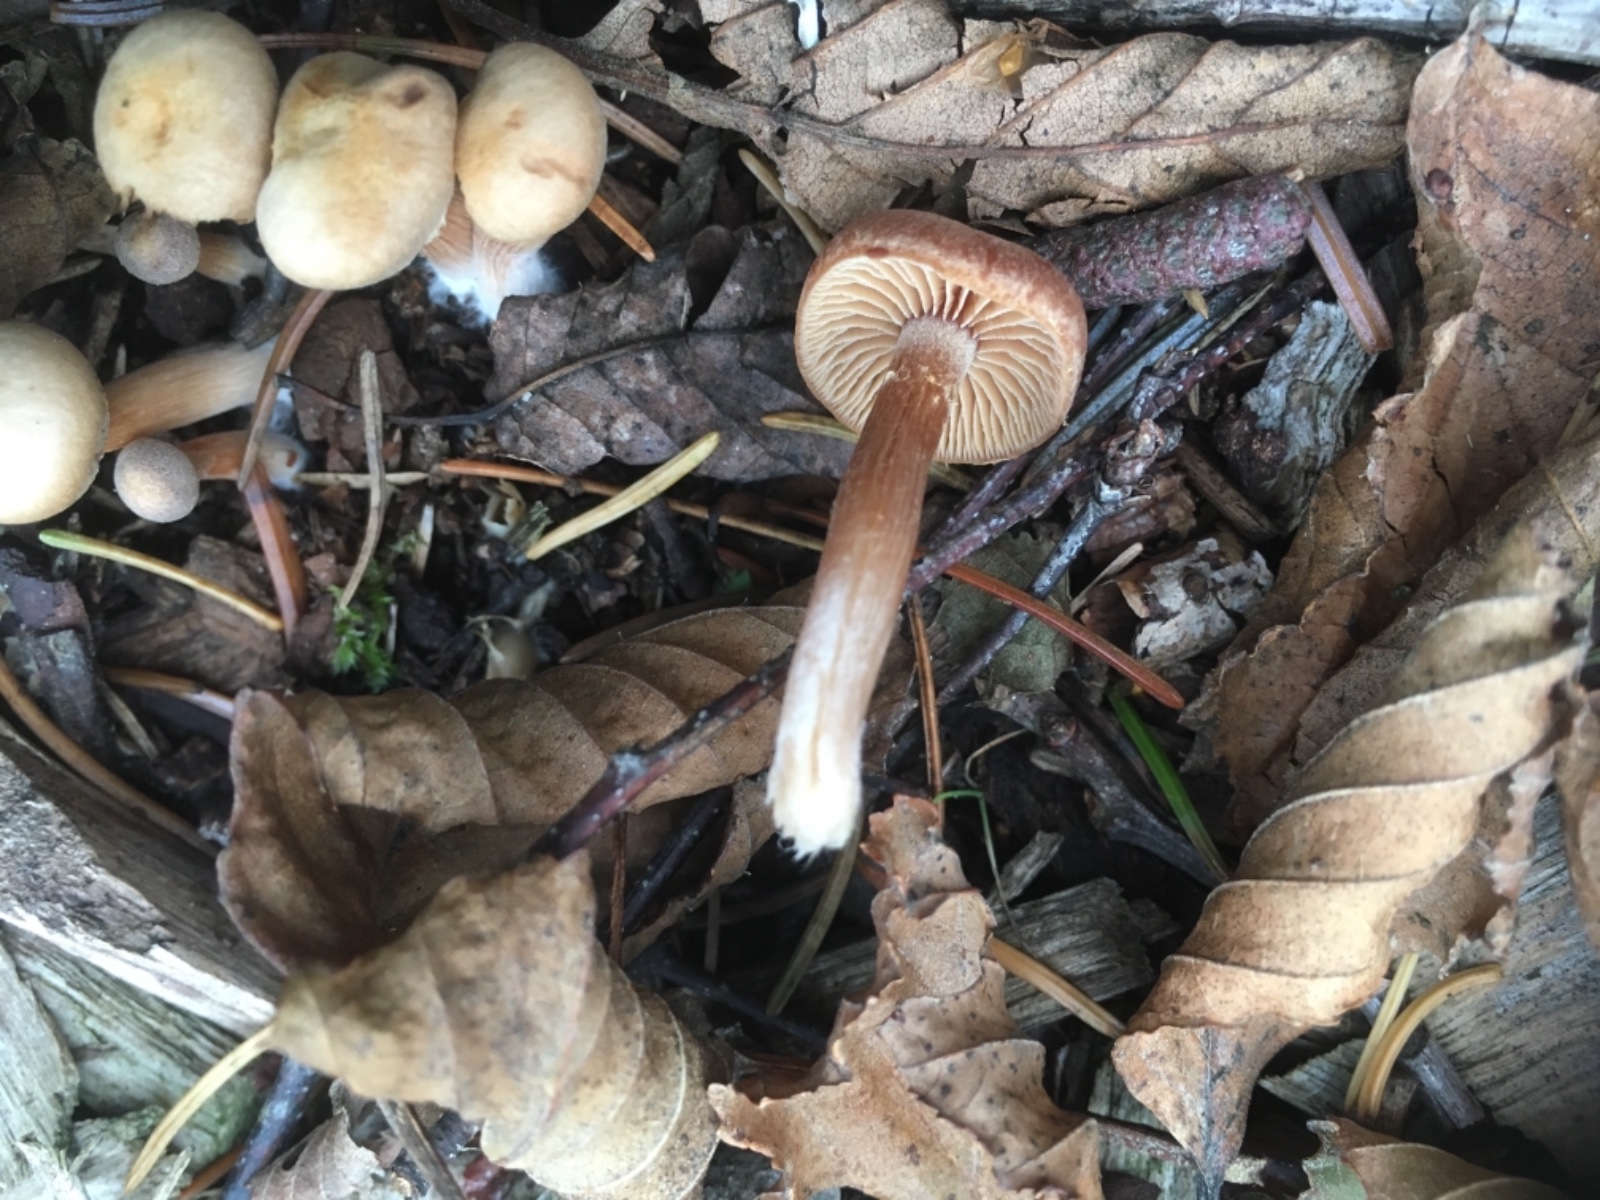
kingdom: Fungi
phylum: Basidiomycota
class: Agaricomycetes
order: Agaricales
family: Tubariaceae
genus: Tubaria
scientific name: Tubaria
